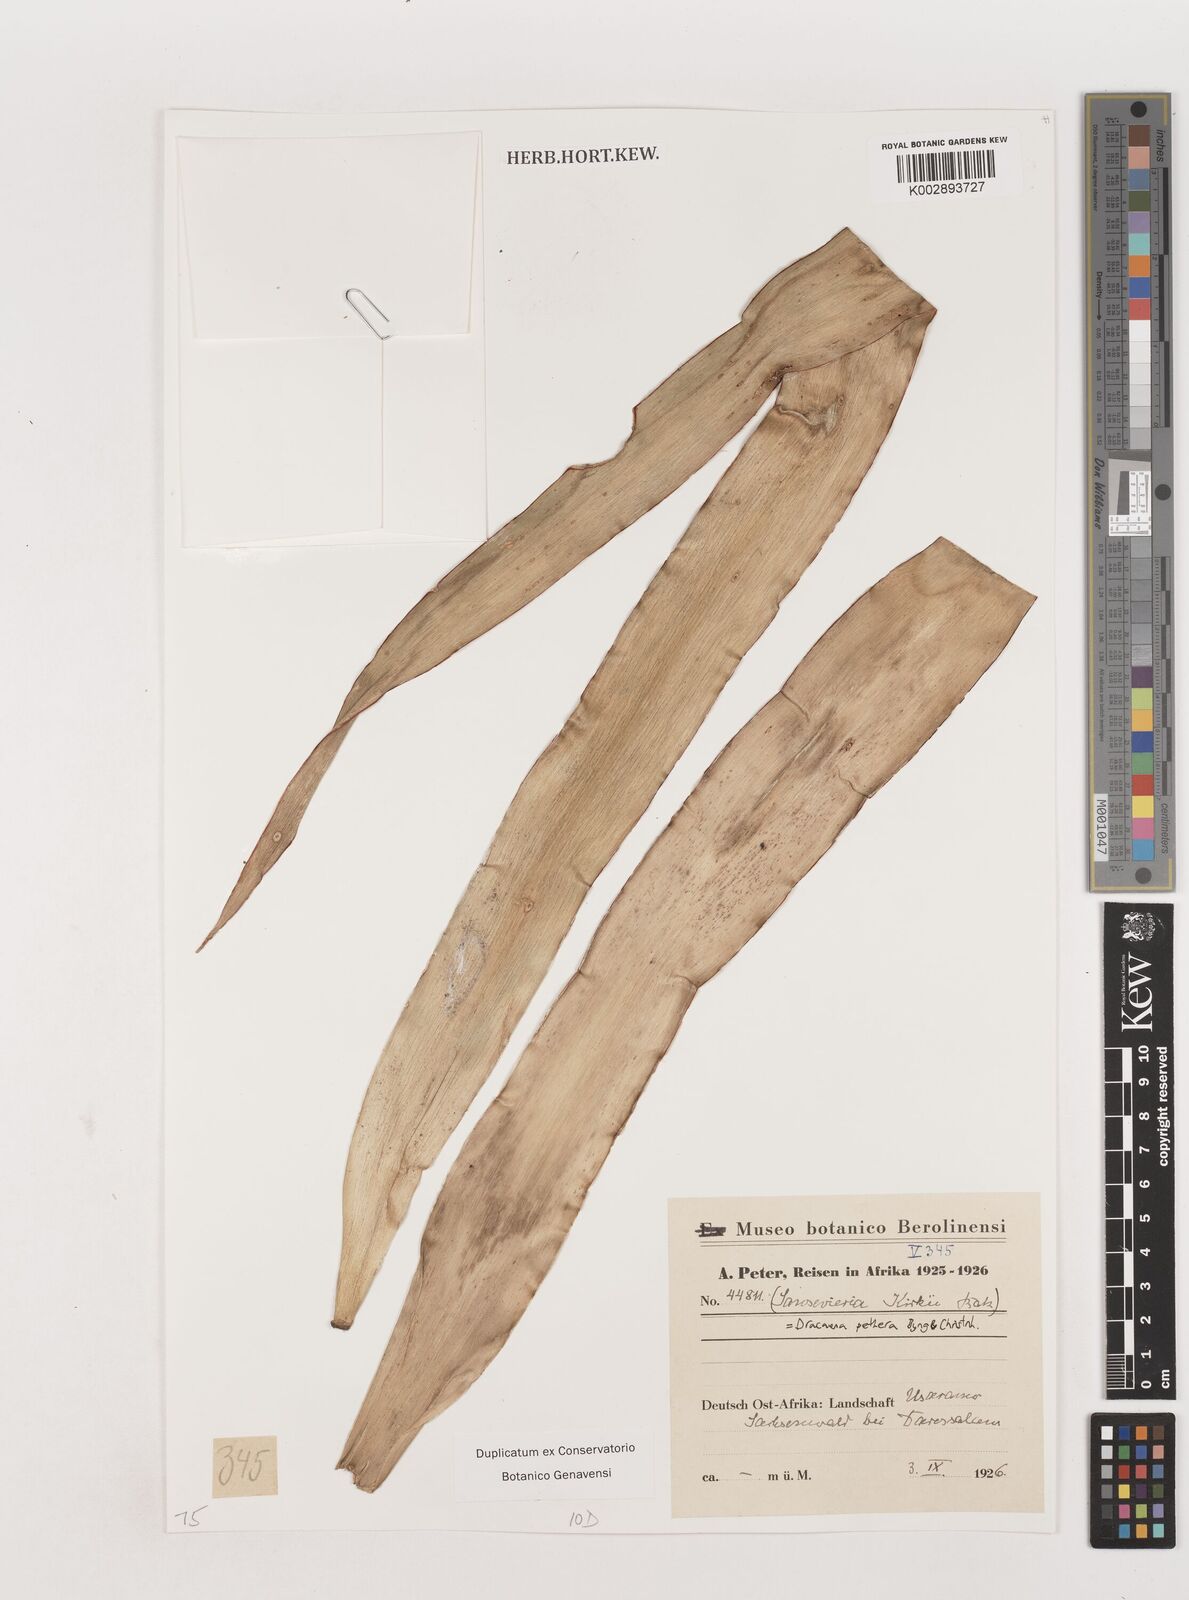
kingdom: Plantae
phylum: Tracheophyta
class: Liliopsida
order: Asparagales
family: Asparagaceae
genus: Dracaena
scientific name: Dracaena pethera
